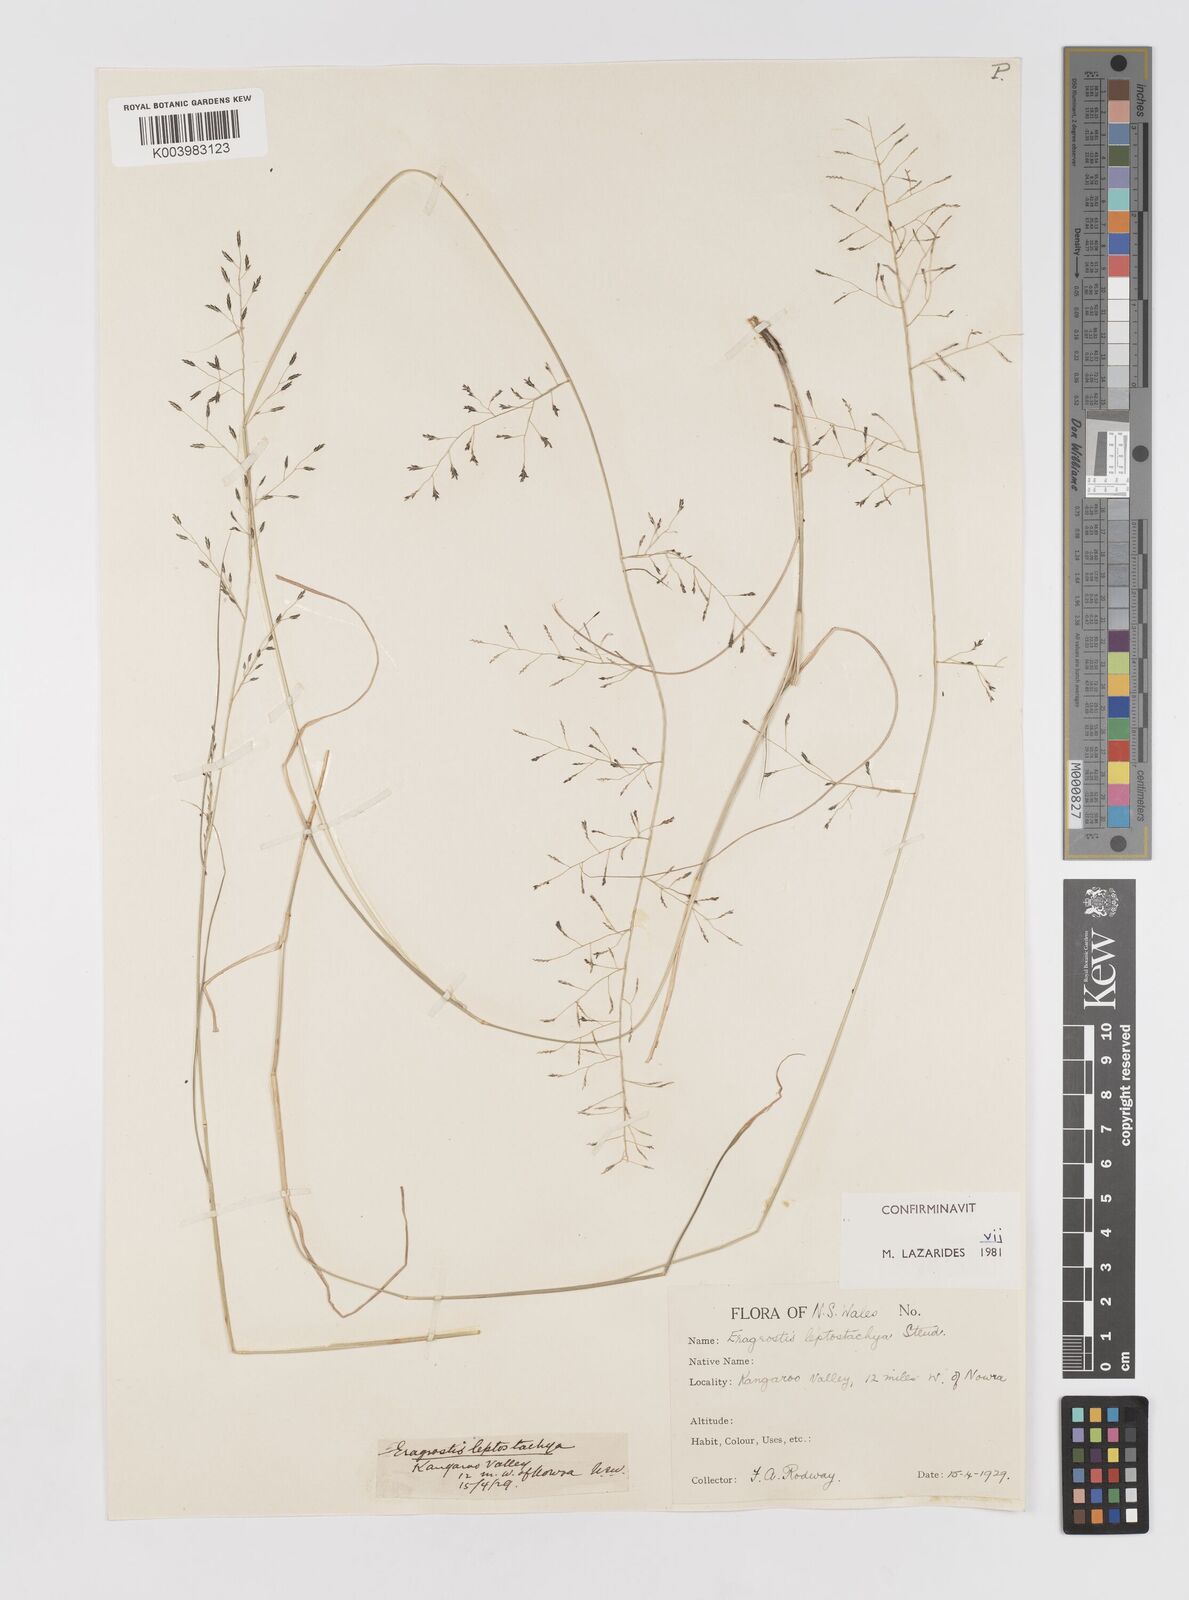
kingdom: Plantae
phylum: Tracheophyta
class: Liliopsida
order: Poales
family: Poaceae
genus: Eragrostis
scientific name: Eragrostis leptostachya
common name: Australian lovegrass
